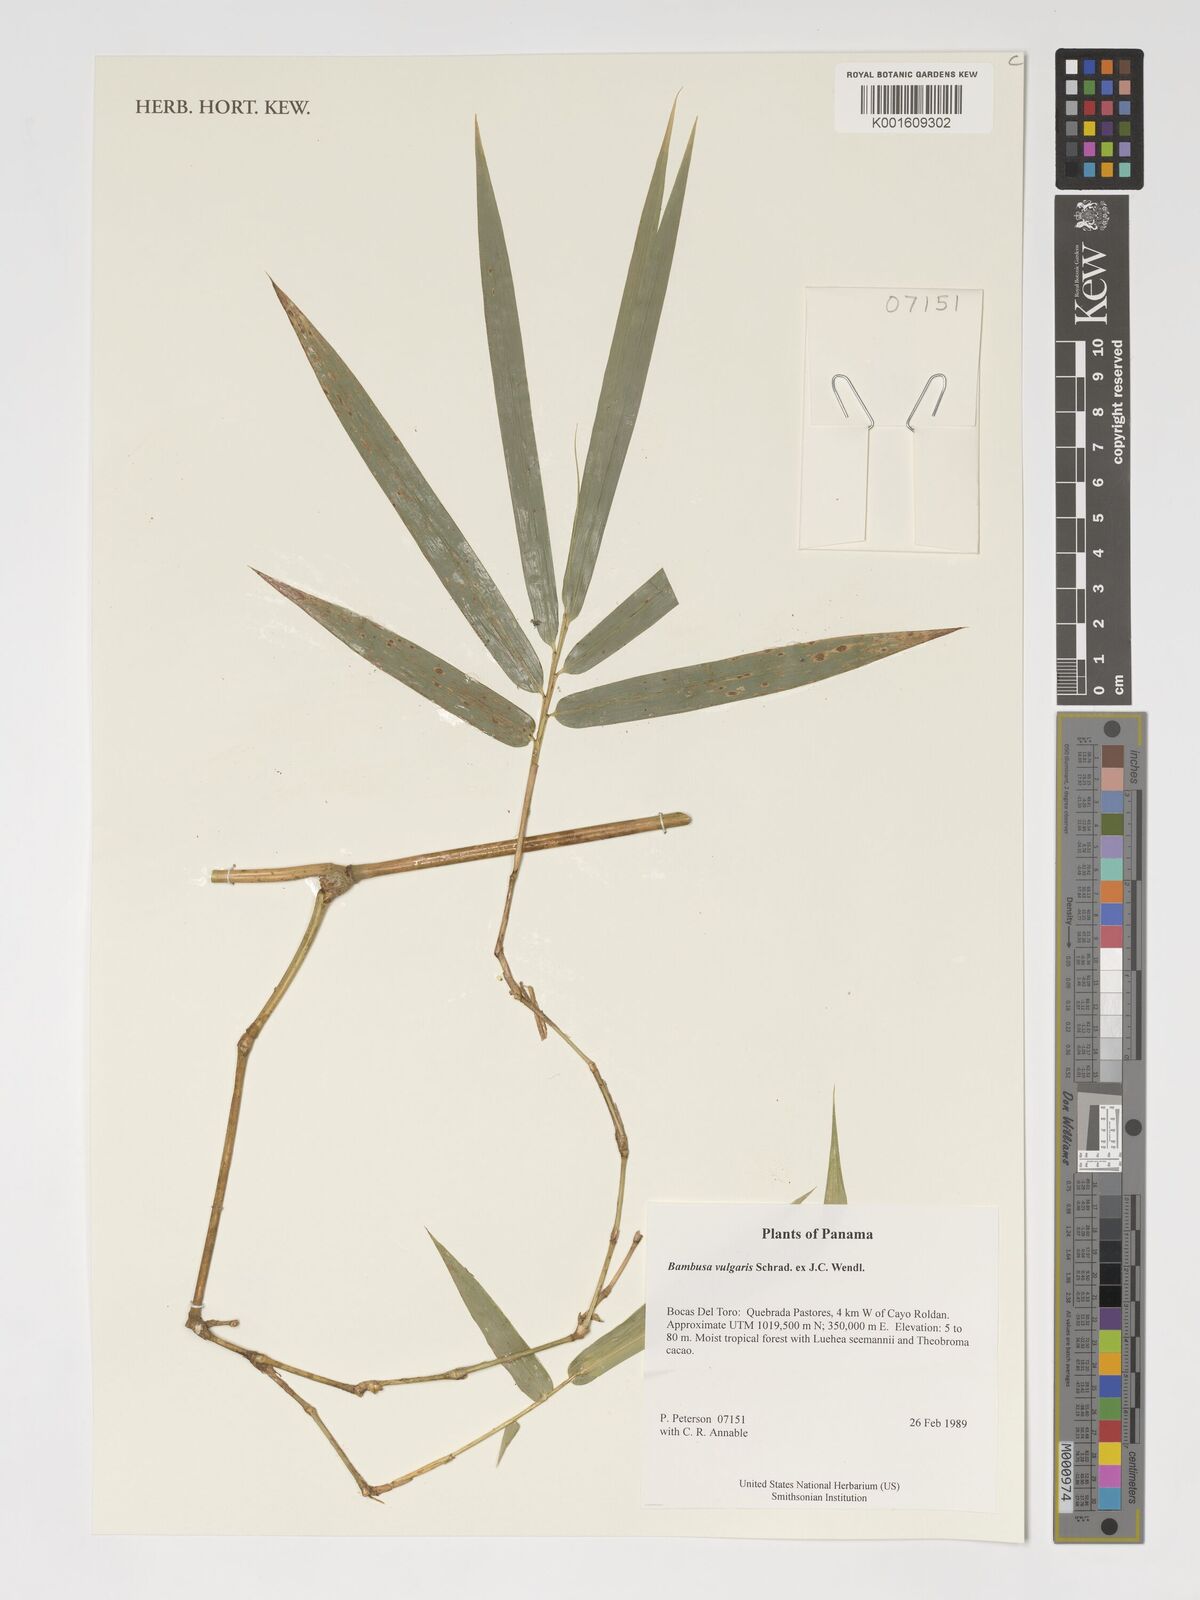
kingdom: Plantae
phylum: Tracheophyta
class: Liliopsida
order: Poales
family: Poaceae
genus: Bambusa
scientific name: Bambusa vulgaris
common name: Common bamboo
